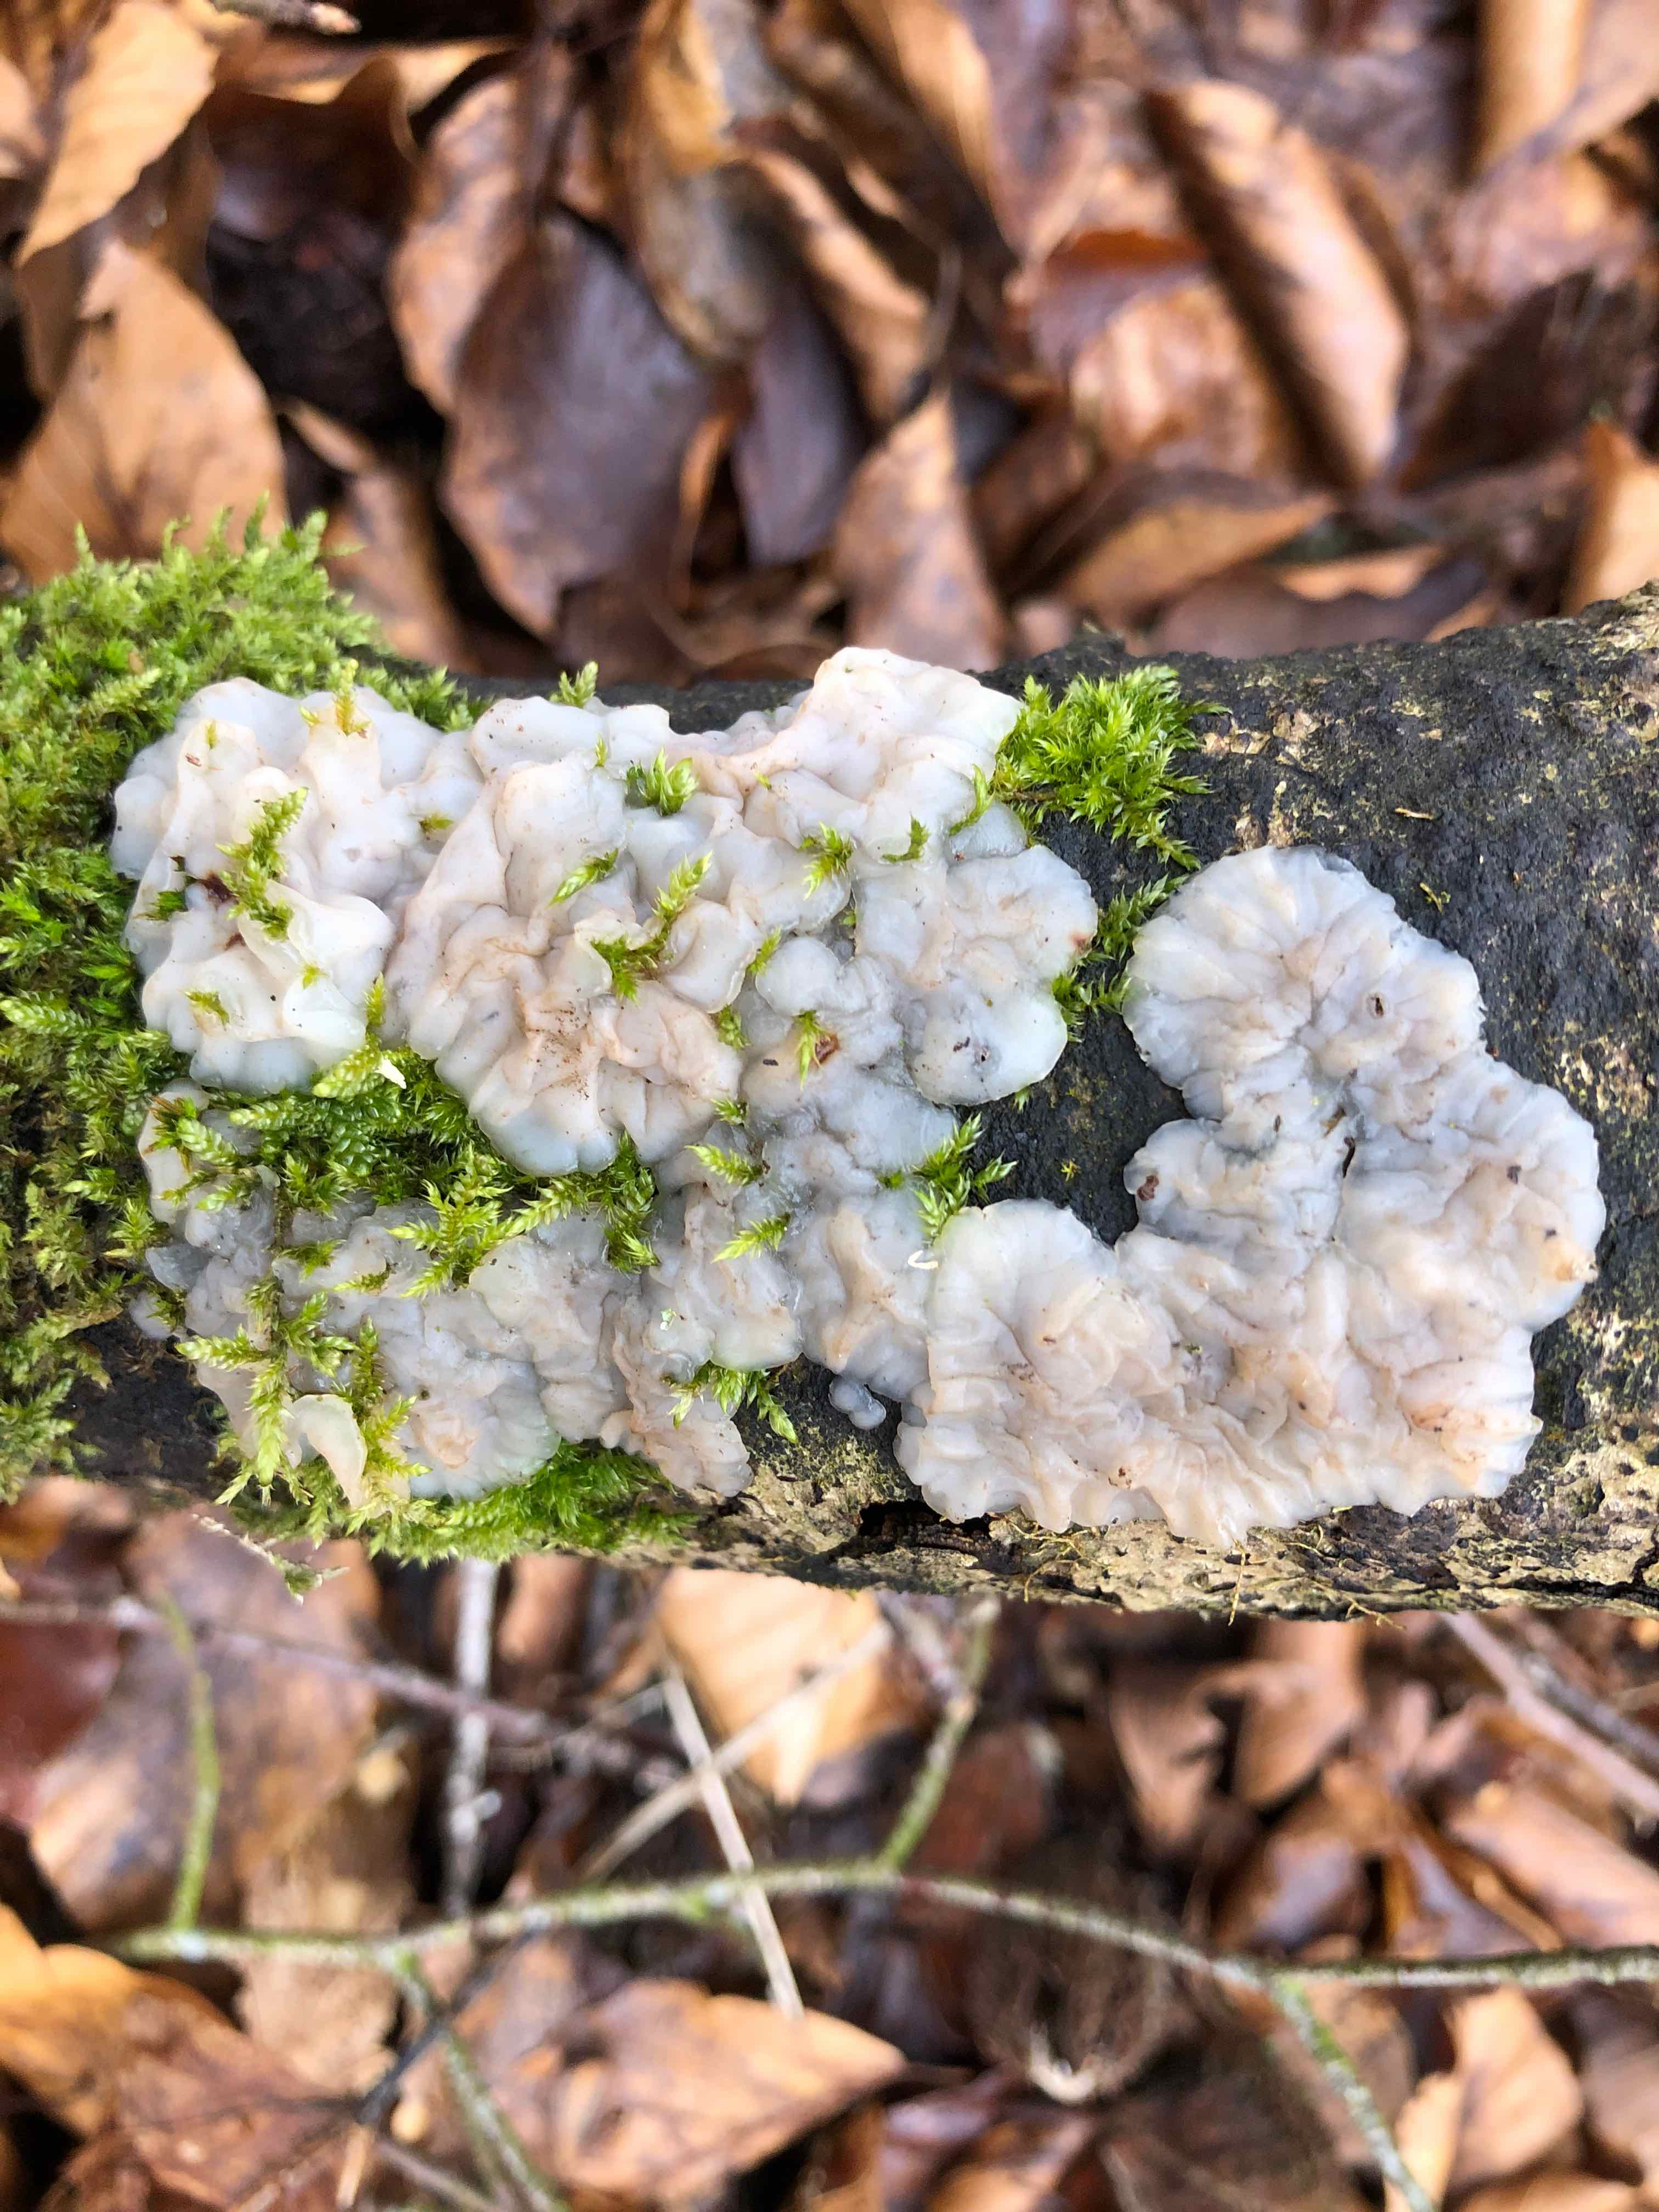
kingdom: Fungi
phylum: Basidiomycota
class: Agaricomycetes
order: Auriculariales
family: Auriculariaceae
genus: Exidia
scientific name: Exidia thuretiana
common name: hvidlig bævretop
